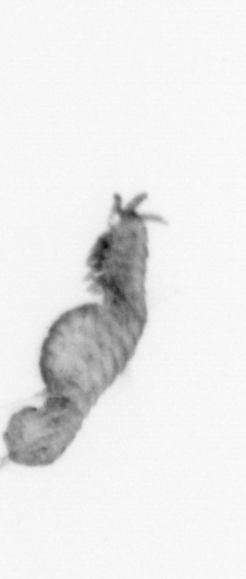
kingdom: Animalia
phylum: Annelida
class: Polychaeta
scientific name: Polychaeta
